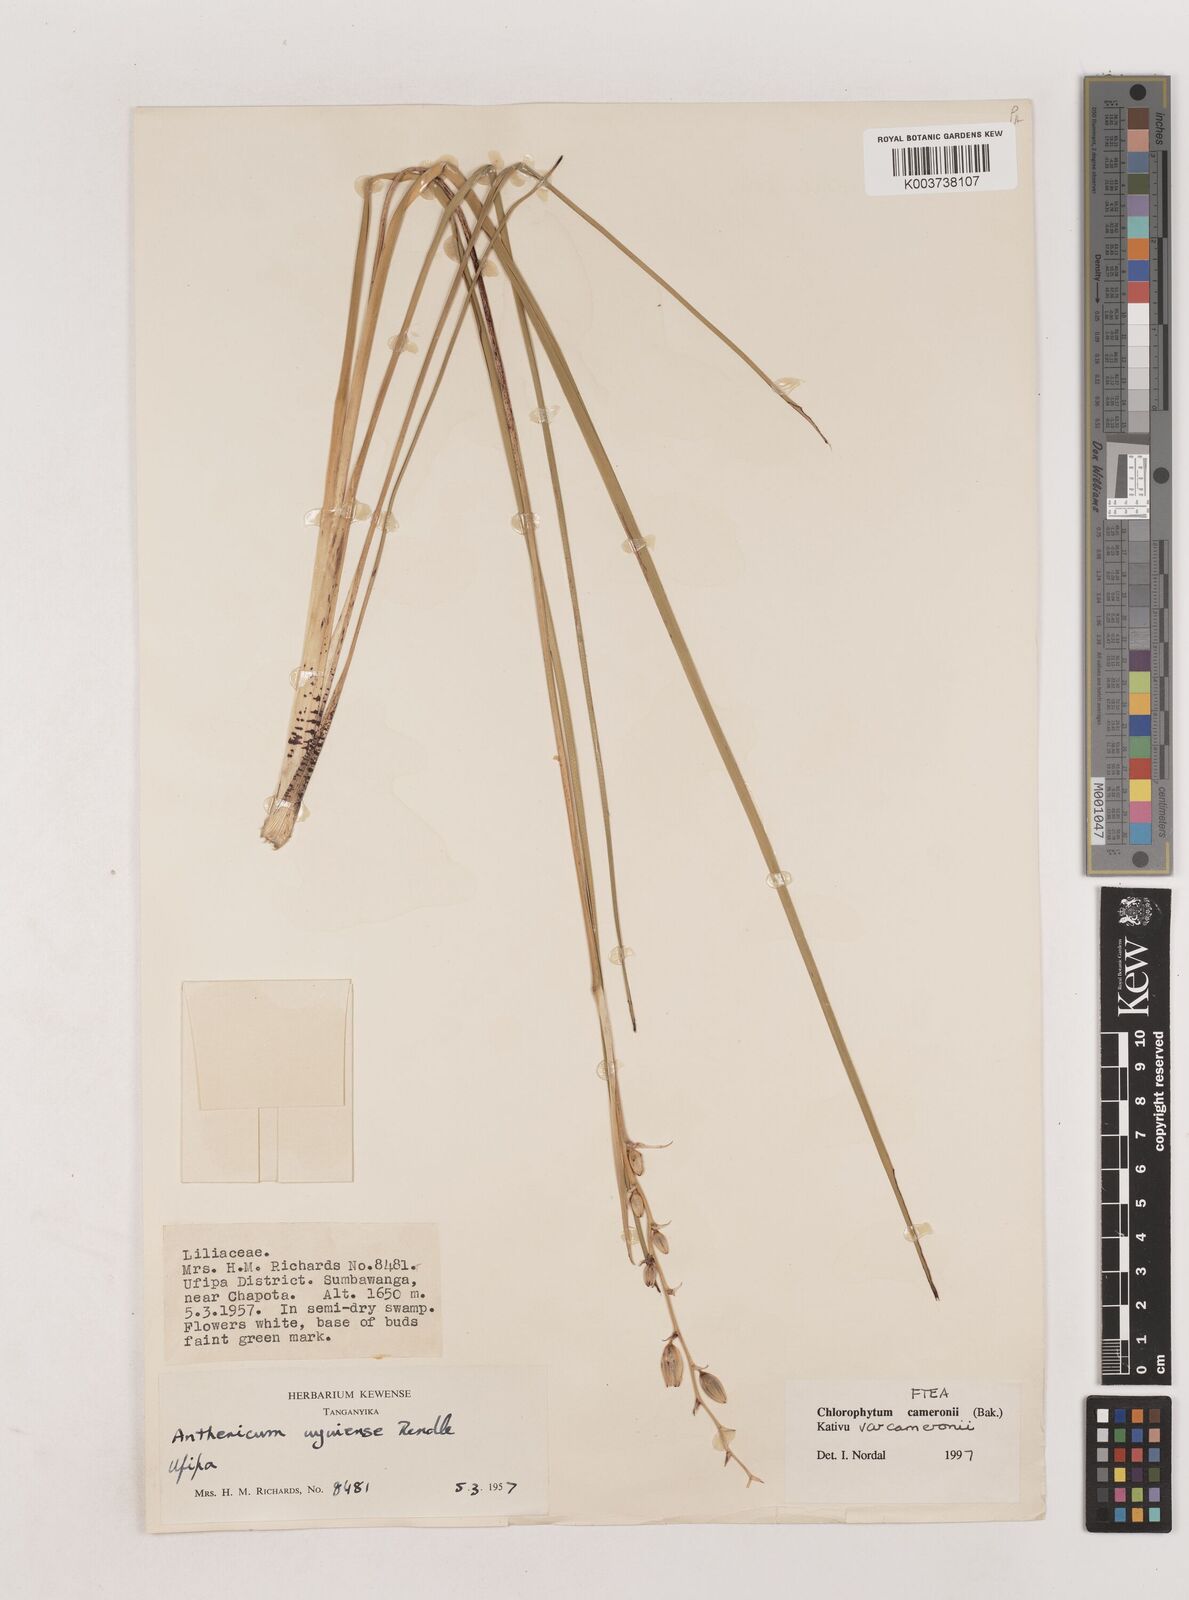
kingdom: Plantae
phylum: Tracheophyta
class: Liliopsida
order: Asparagales
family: Asparagaceae
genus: Chlorophytum
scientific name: Chlorophytum cameronii
